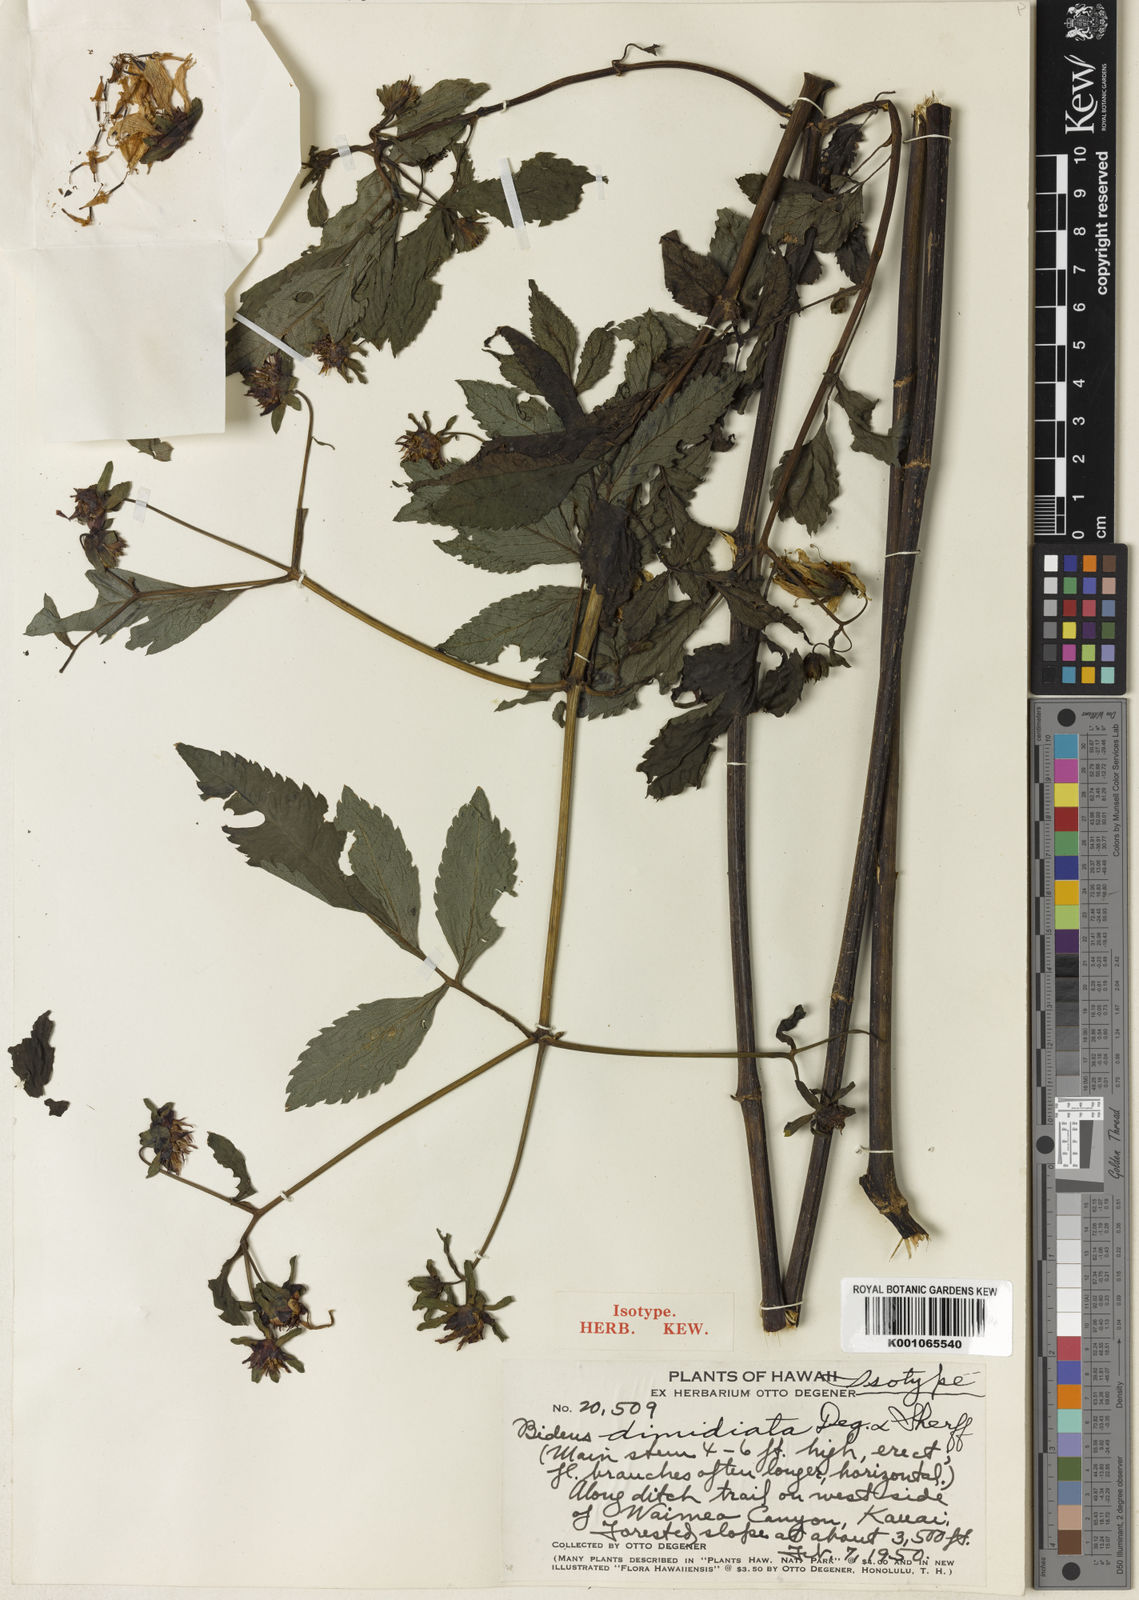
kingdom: Plantae
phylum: Tracheophyta
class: Magnoliopsida
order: Asterales
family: Asteraceae
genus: Bidens
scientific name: Bidens cosmoides
